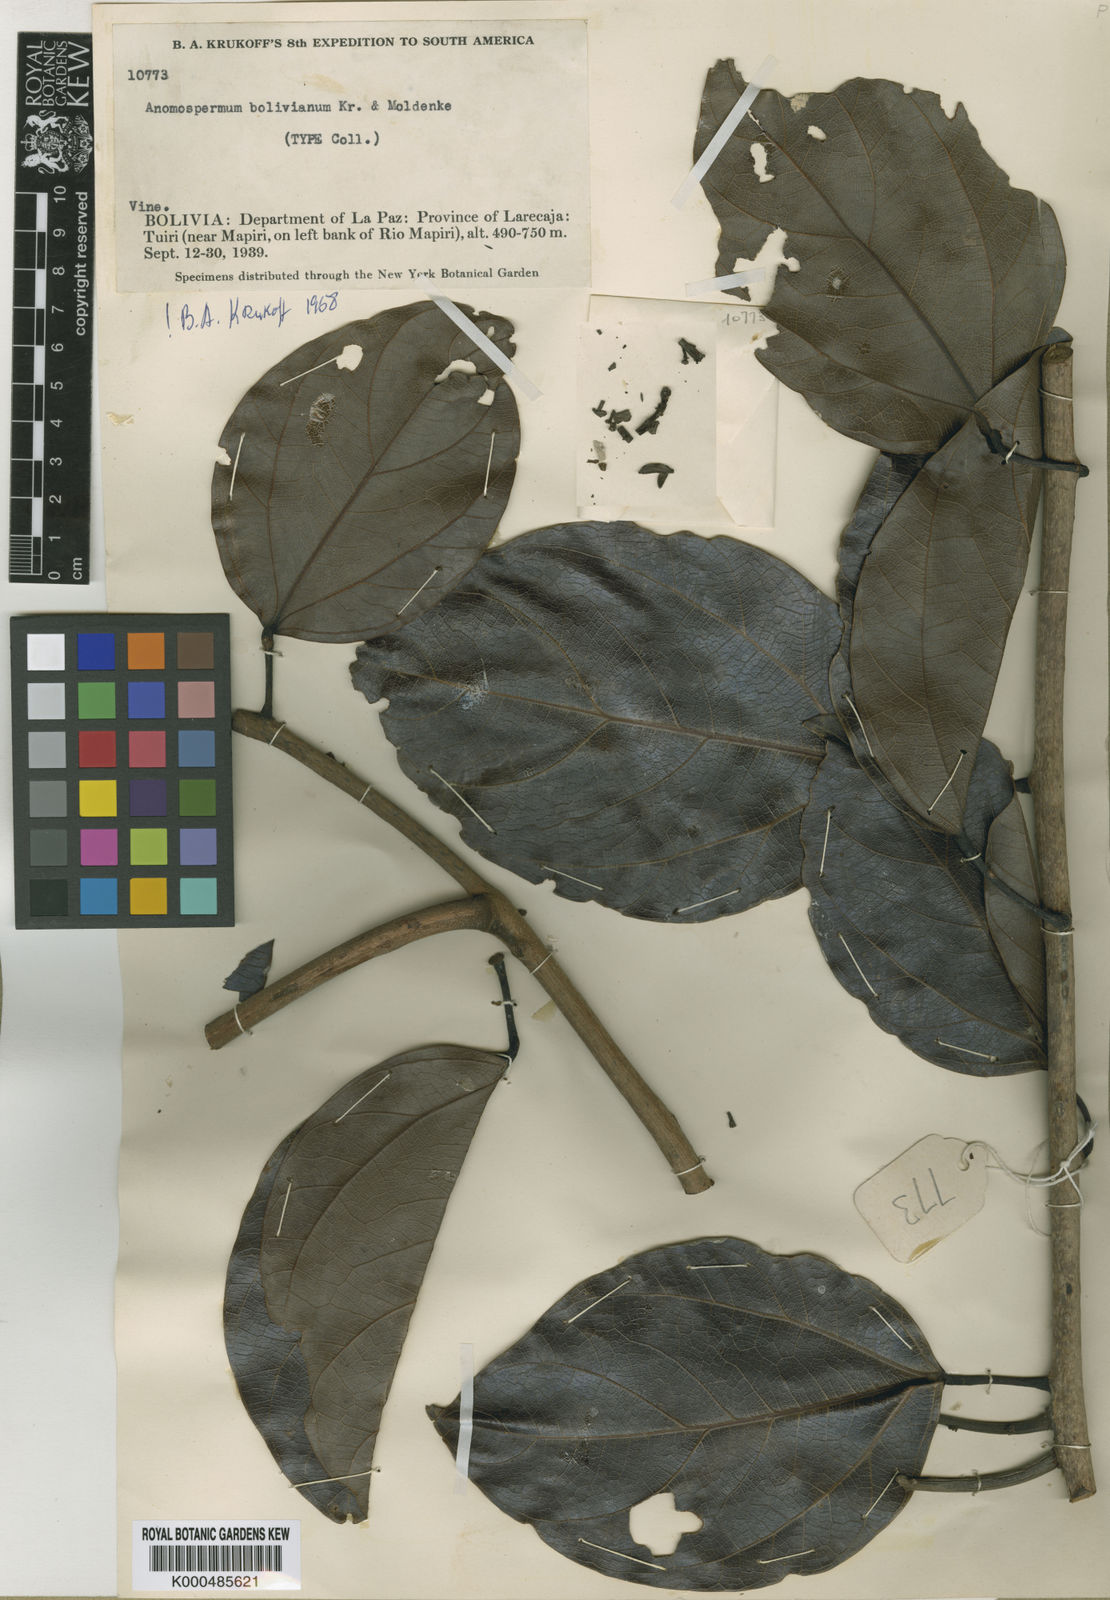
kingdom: Plantae
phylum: Tracheophyta
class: Magnoliopsida
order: Ranunculales
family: Menispermaceae
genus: Rupertiella
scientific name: Rupertiella boliviana
